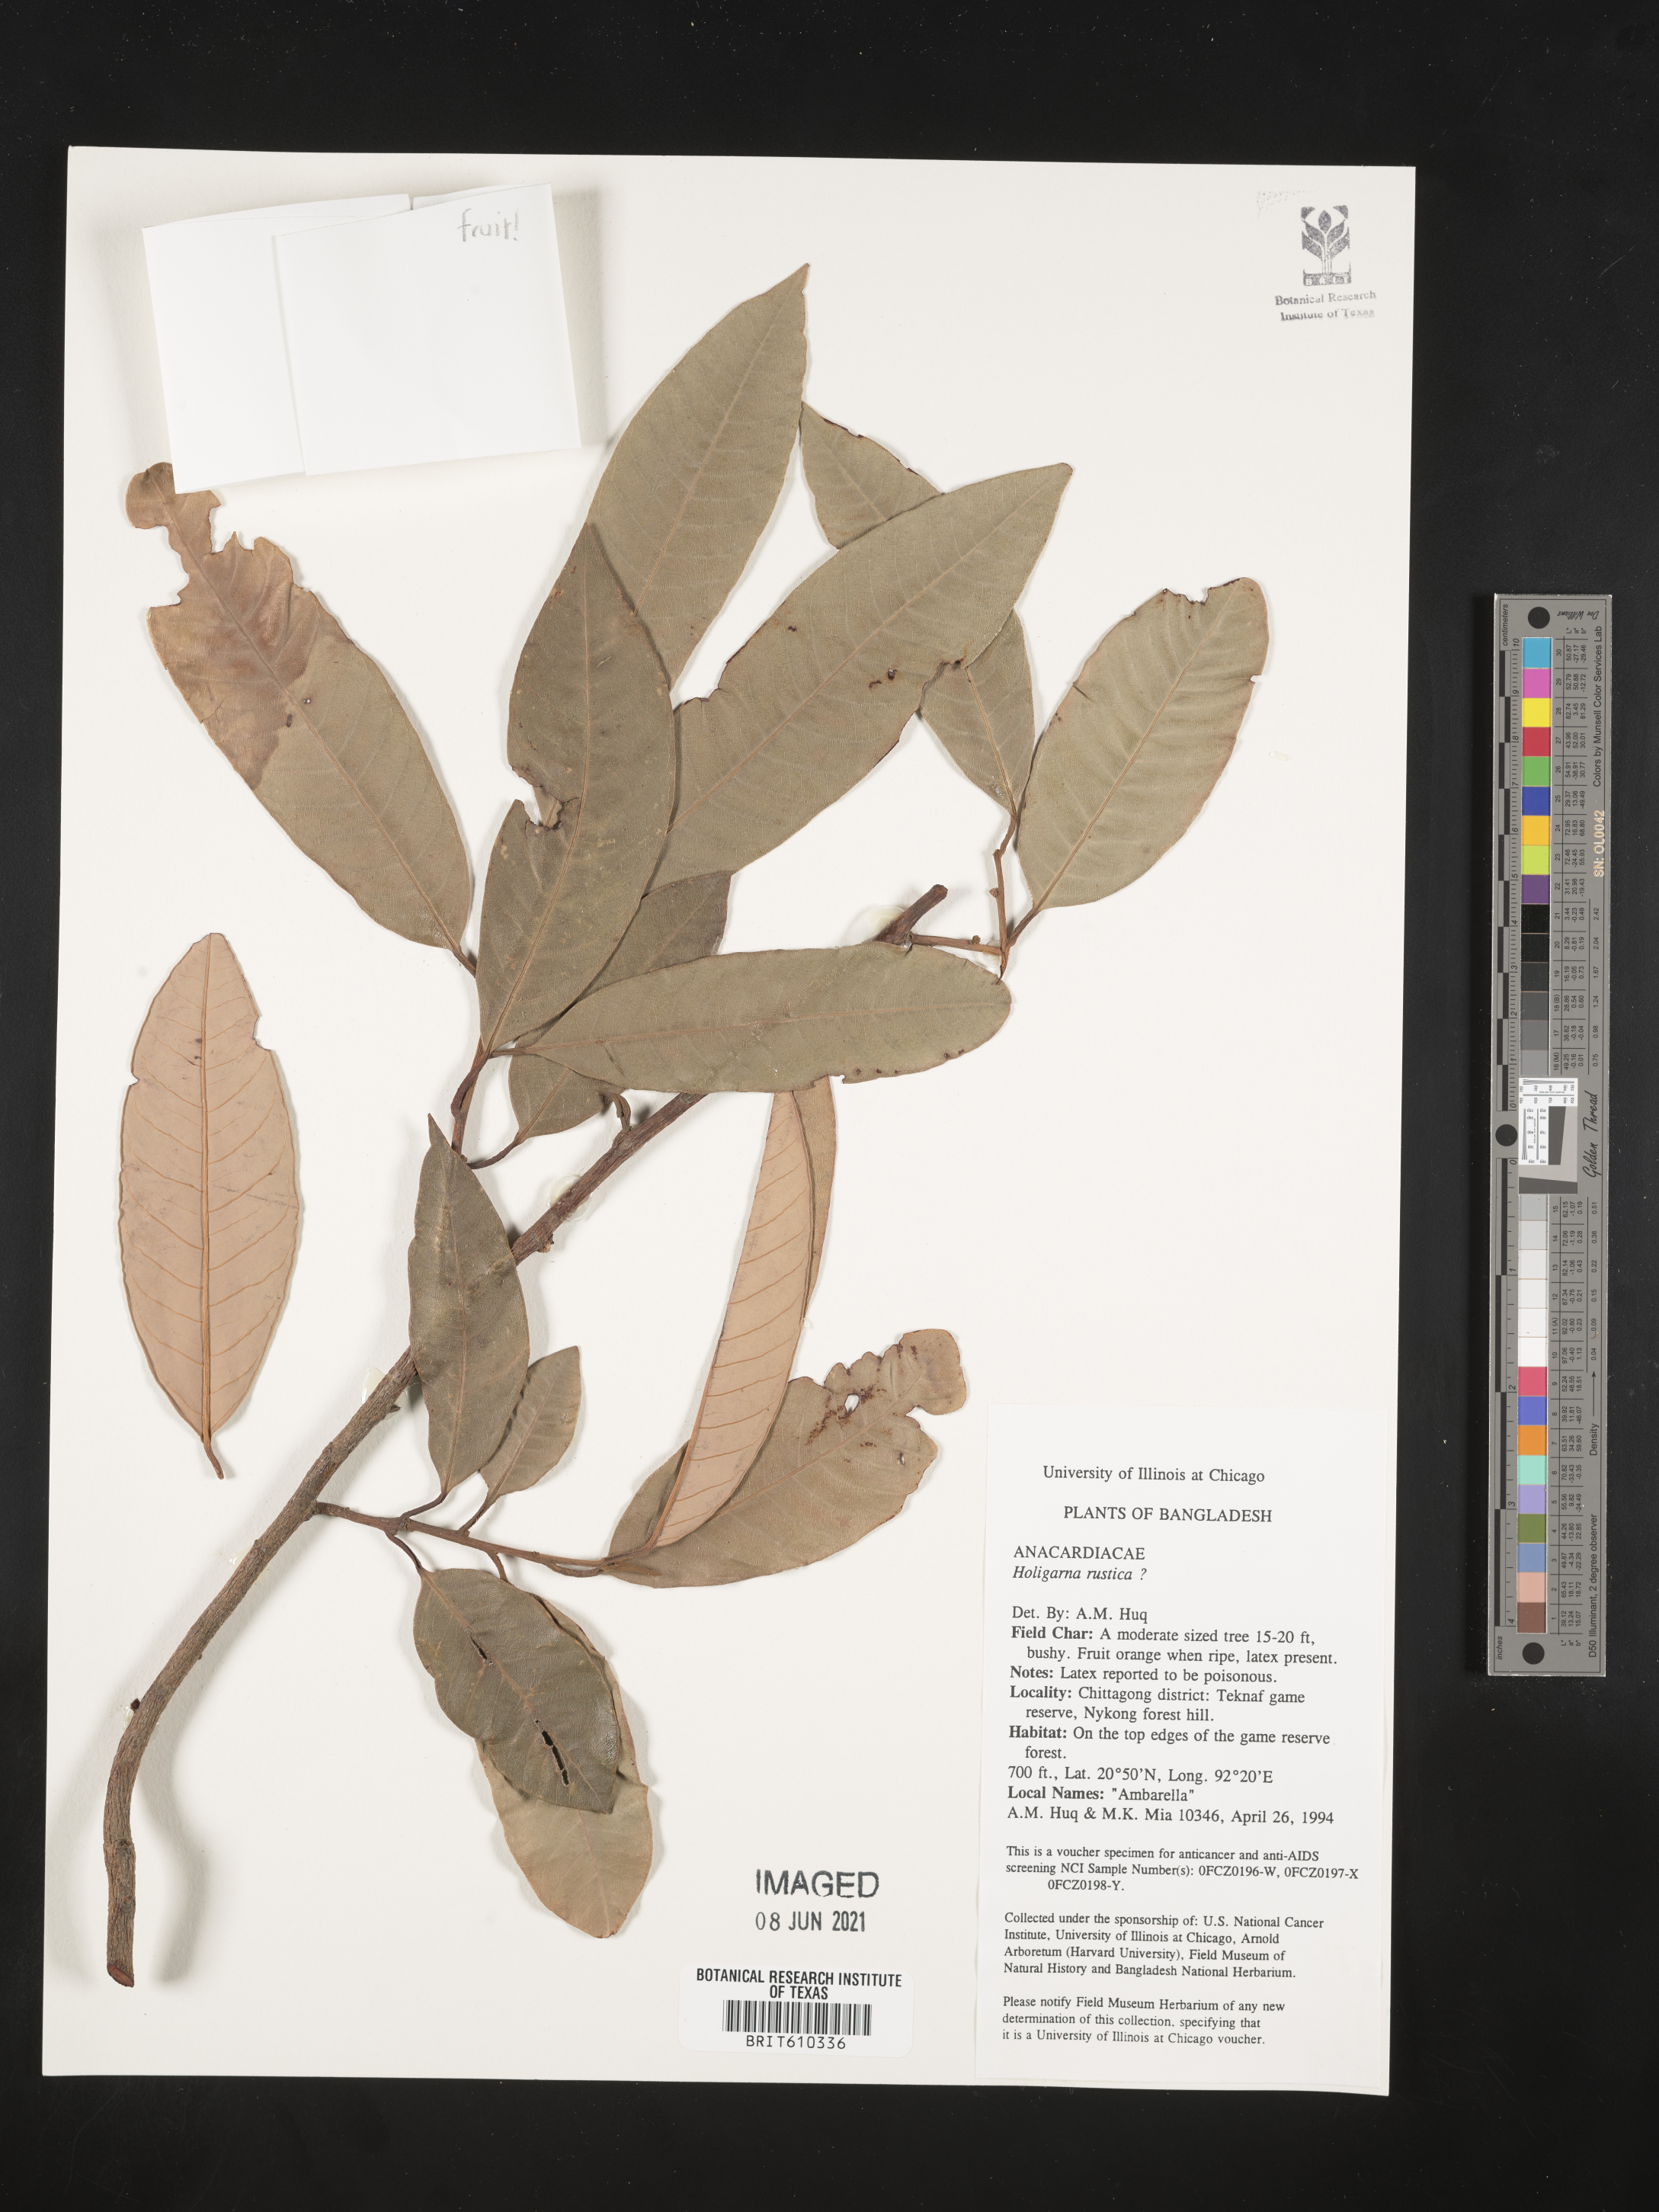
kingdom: Plantae
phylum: Tracheophyta
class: Magnoliopsida
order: Sapindales
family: Anacardiaceae
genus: Holigarna
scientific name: Holigarna
